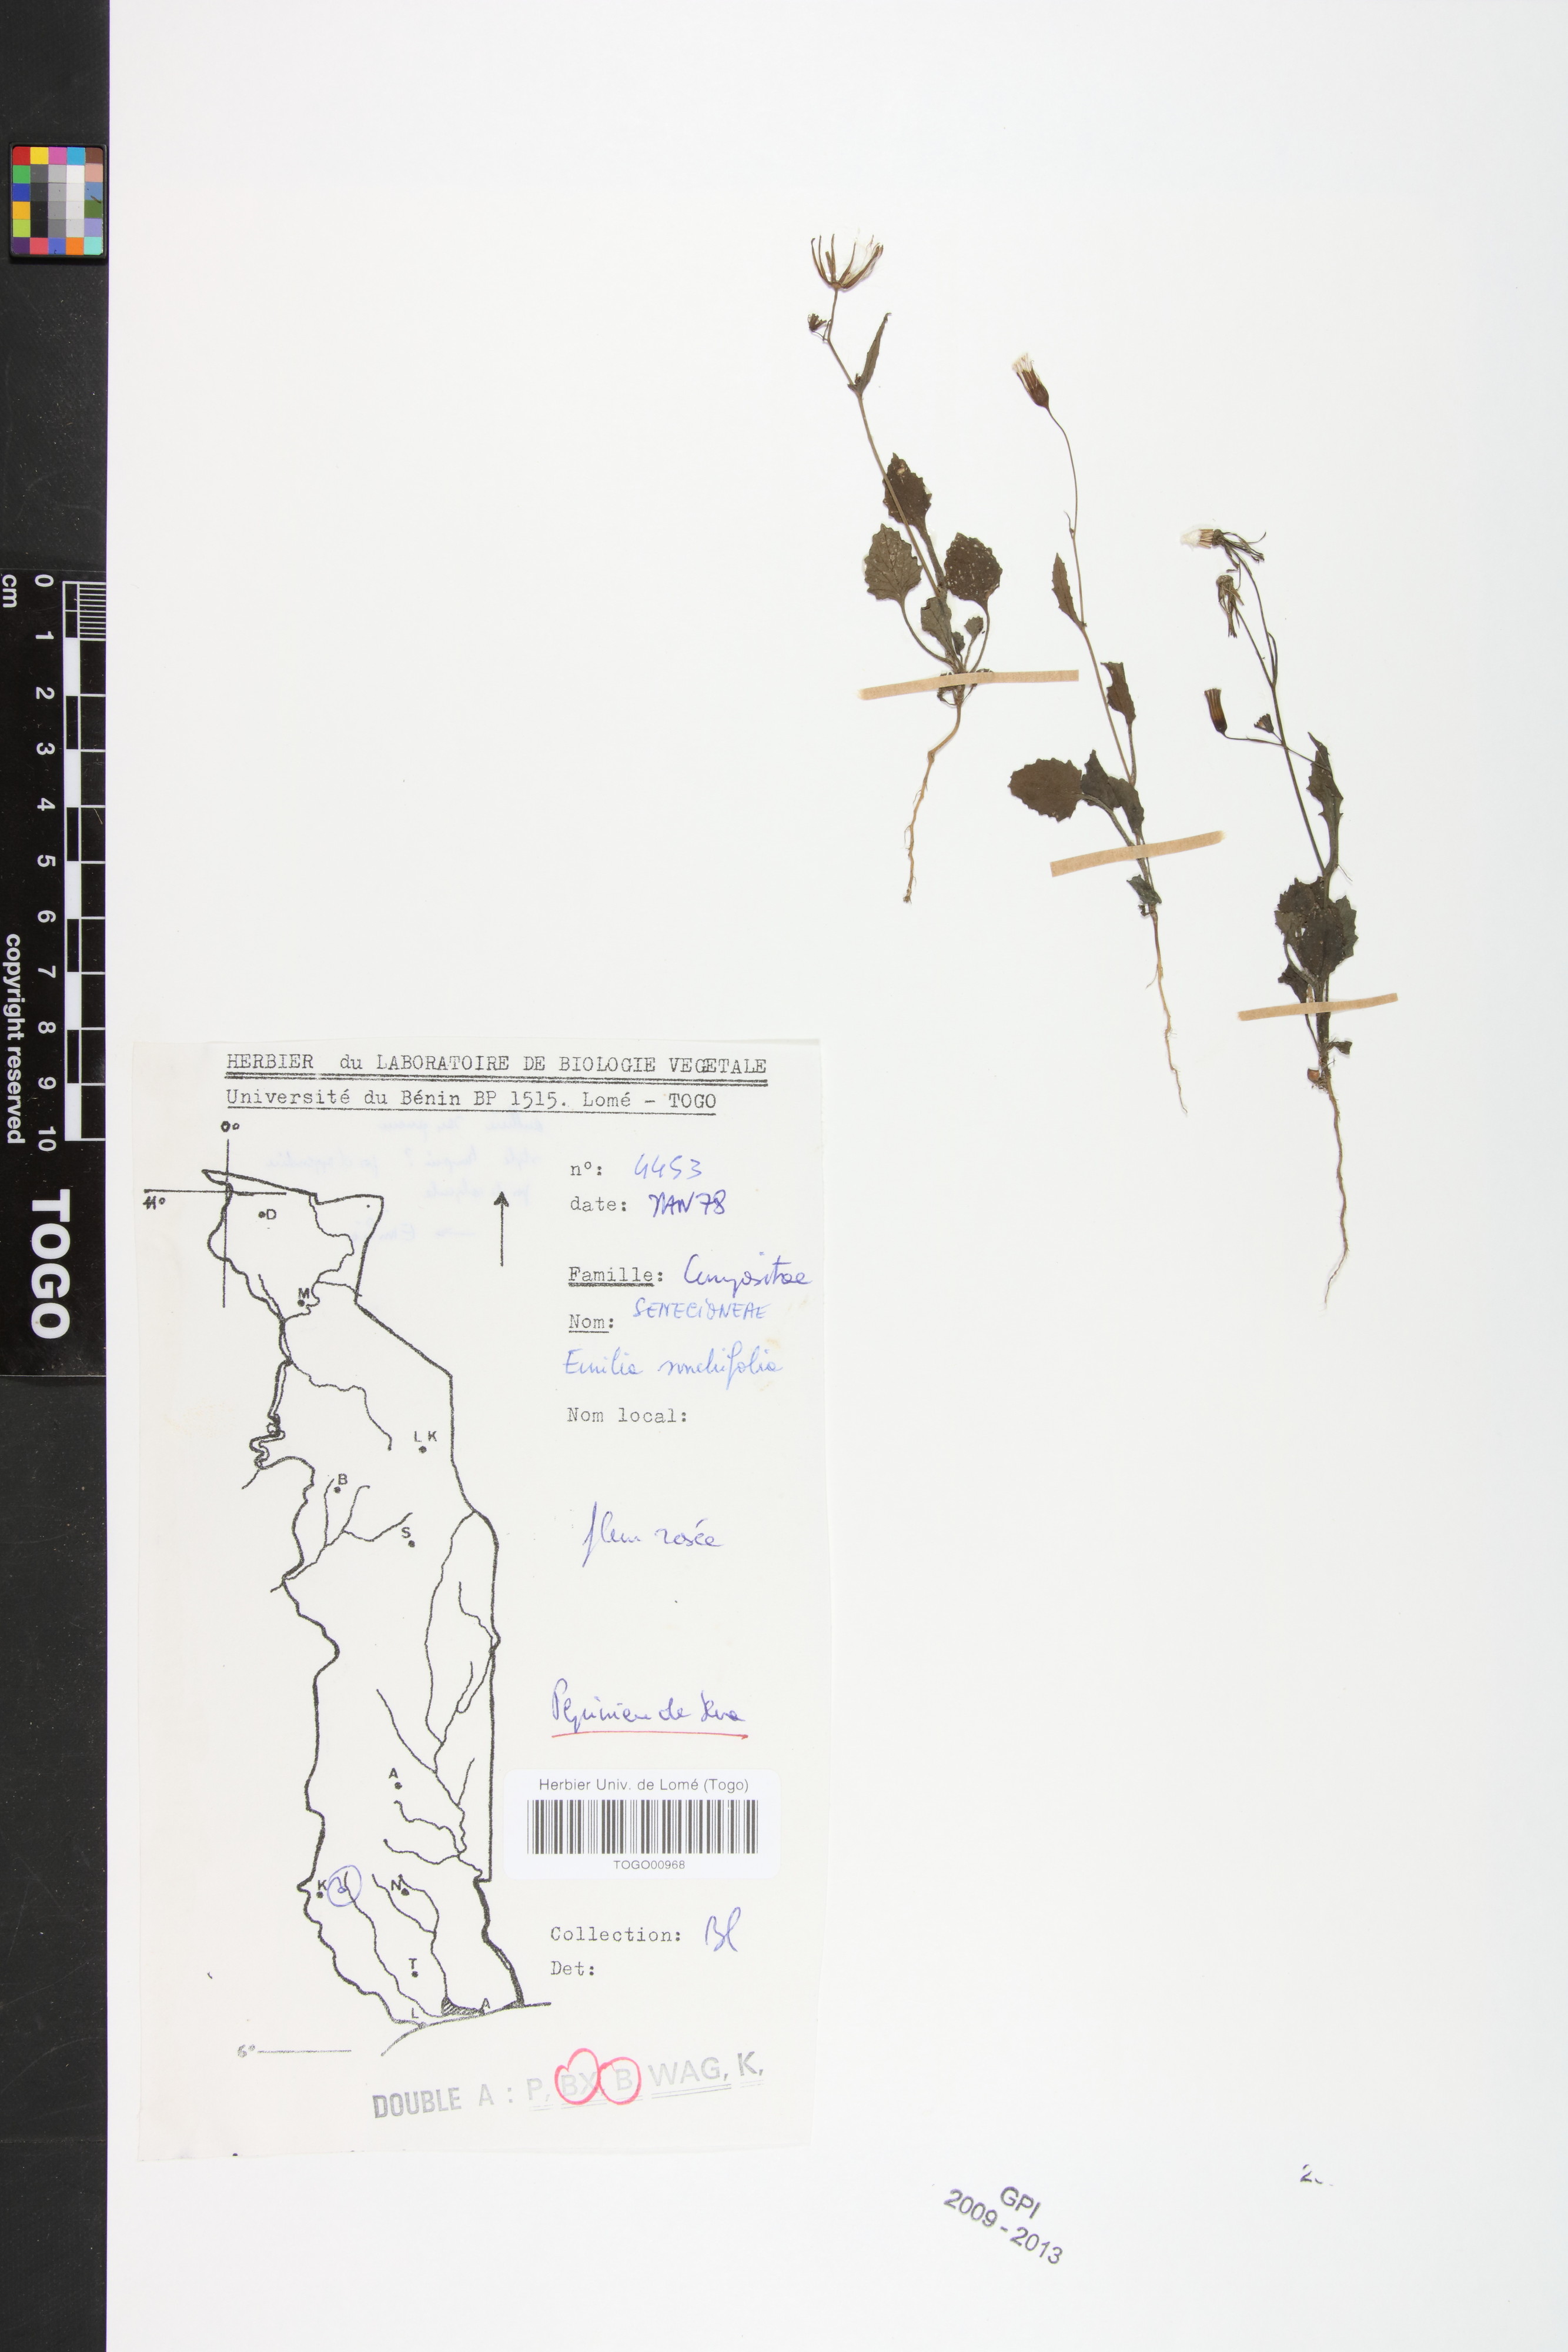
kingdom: Plantae
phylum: Tracheophyta
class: Magnoliopsida
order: Asterales
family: Asteraceae
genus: Emilia
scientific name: Emilia sonchifolia
